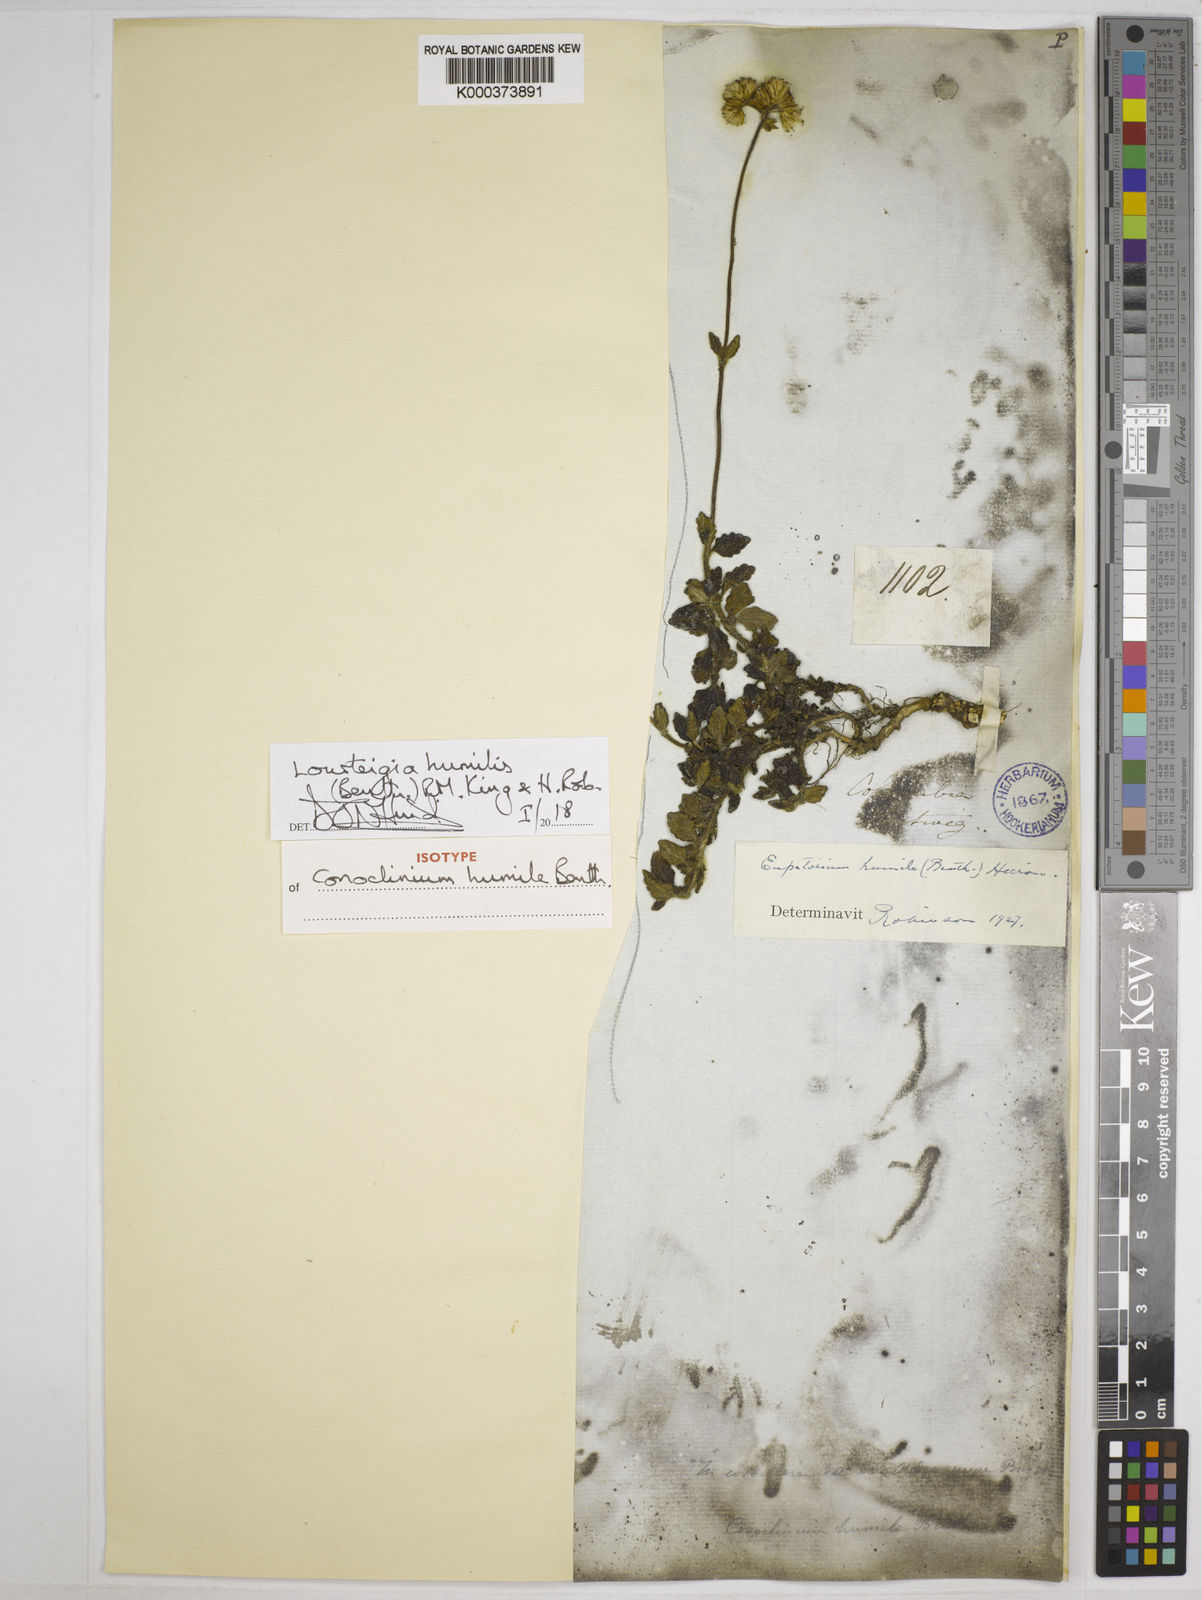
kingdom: Plantae
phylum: Tracheophyta
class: Magnoliopsida
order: Asterales
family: Asteraceae
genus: Lourteigia
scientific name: Lourteigia
